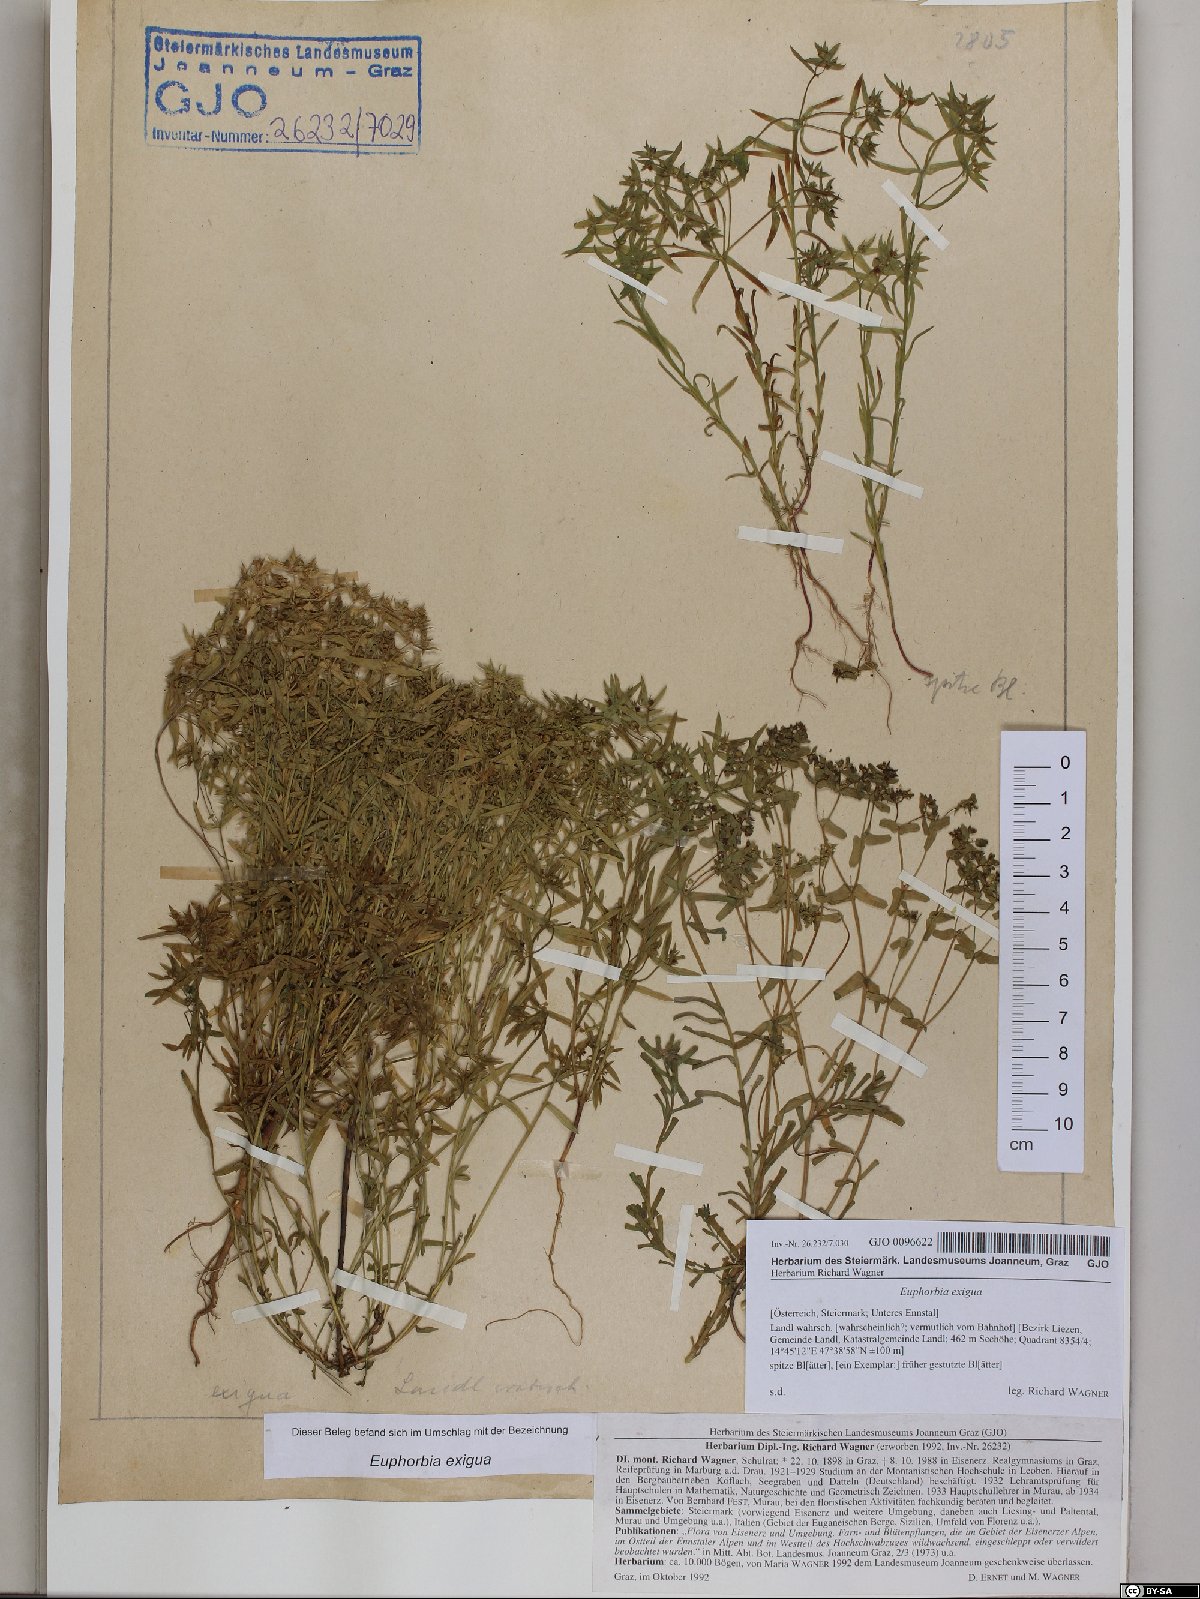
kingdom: Plantae
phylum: Tracheophyta
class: Magnoliopsida
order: Malpighiales
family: Euphorbiaceae
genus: Euphorbia
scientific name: Euphorbia exigua
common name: Dwarf spurge
